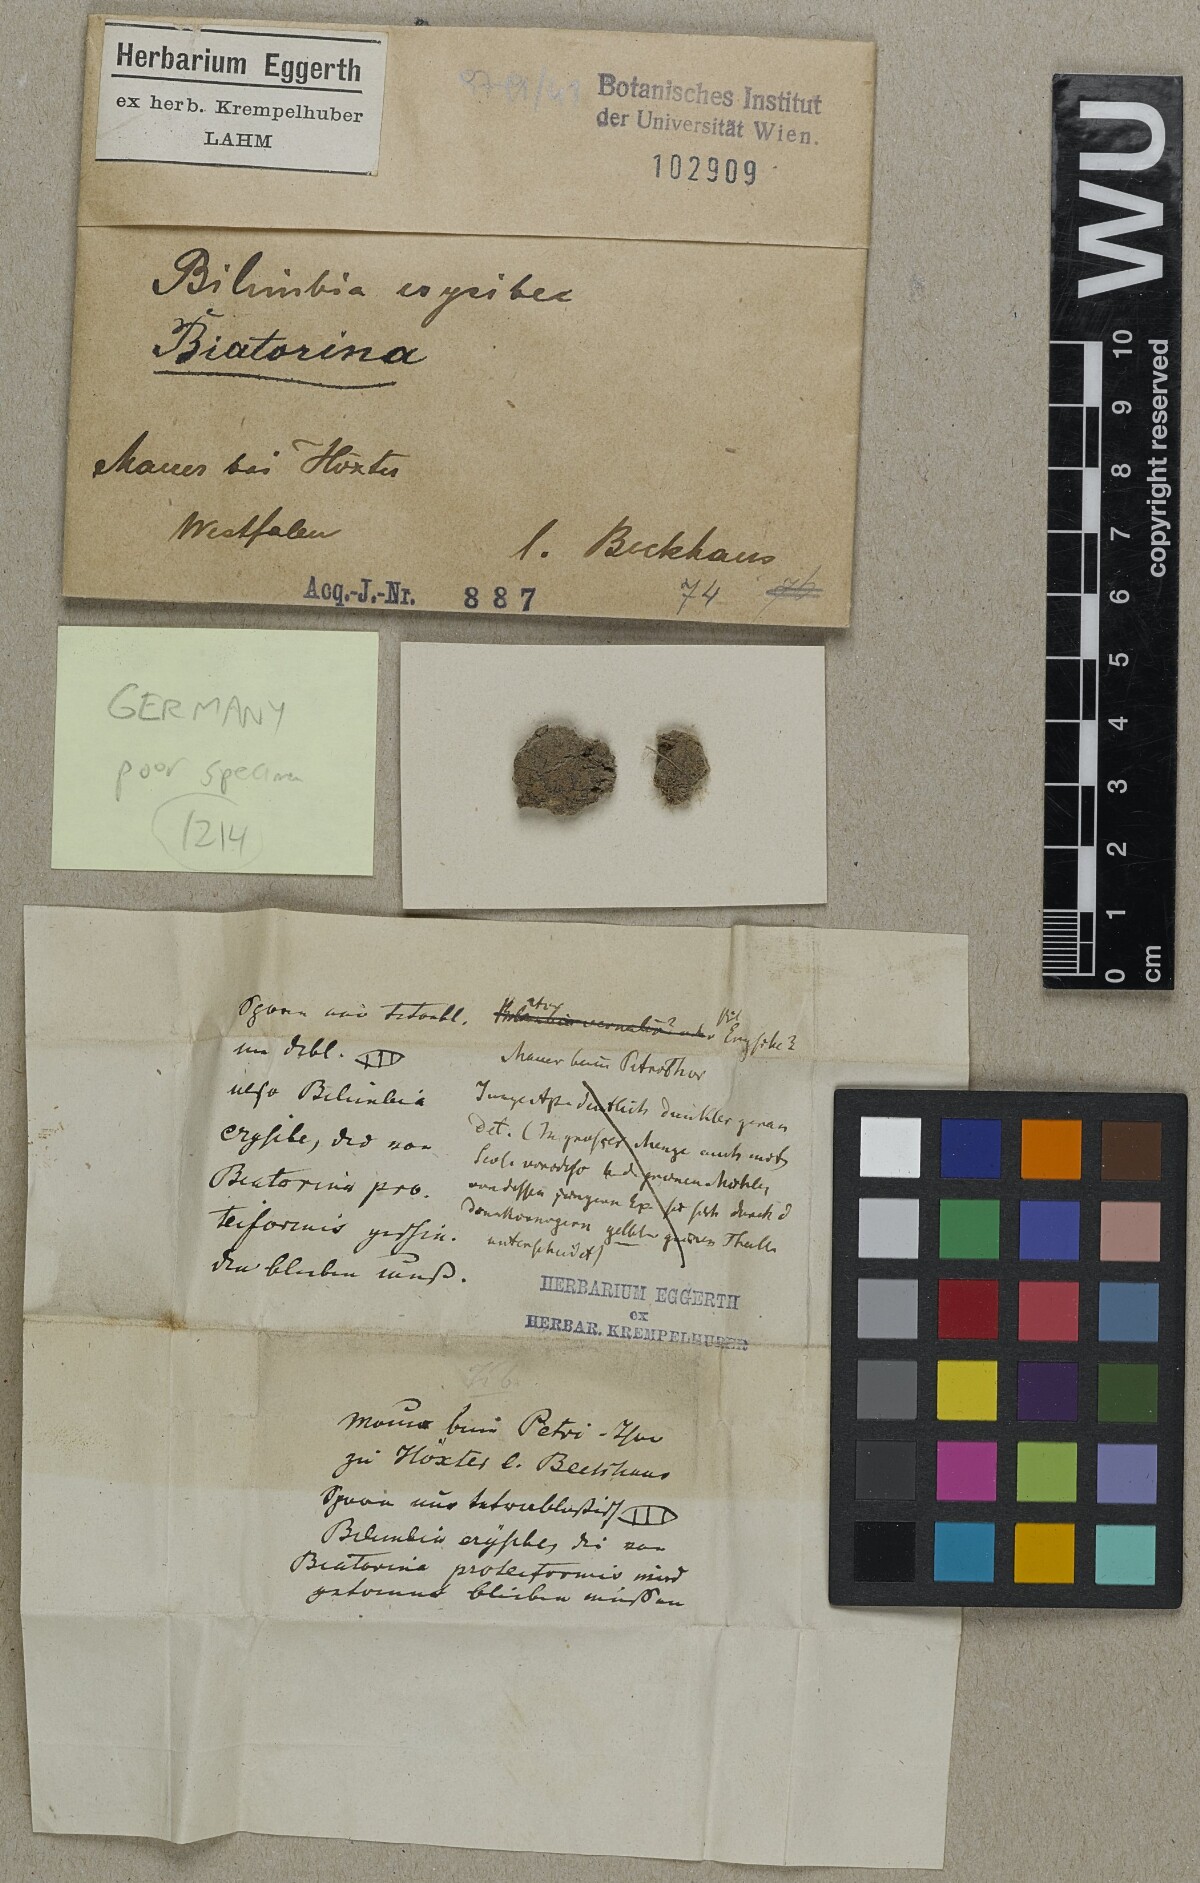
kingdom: Fungi
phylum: Ascomycota
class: Lecanoromycetes
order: Lecanorales
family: Ramalinaceae
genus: Biatorina
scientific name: Biatorina
